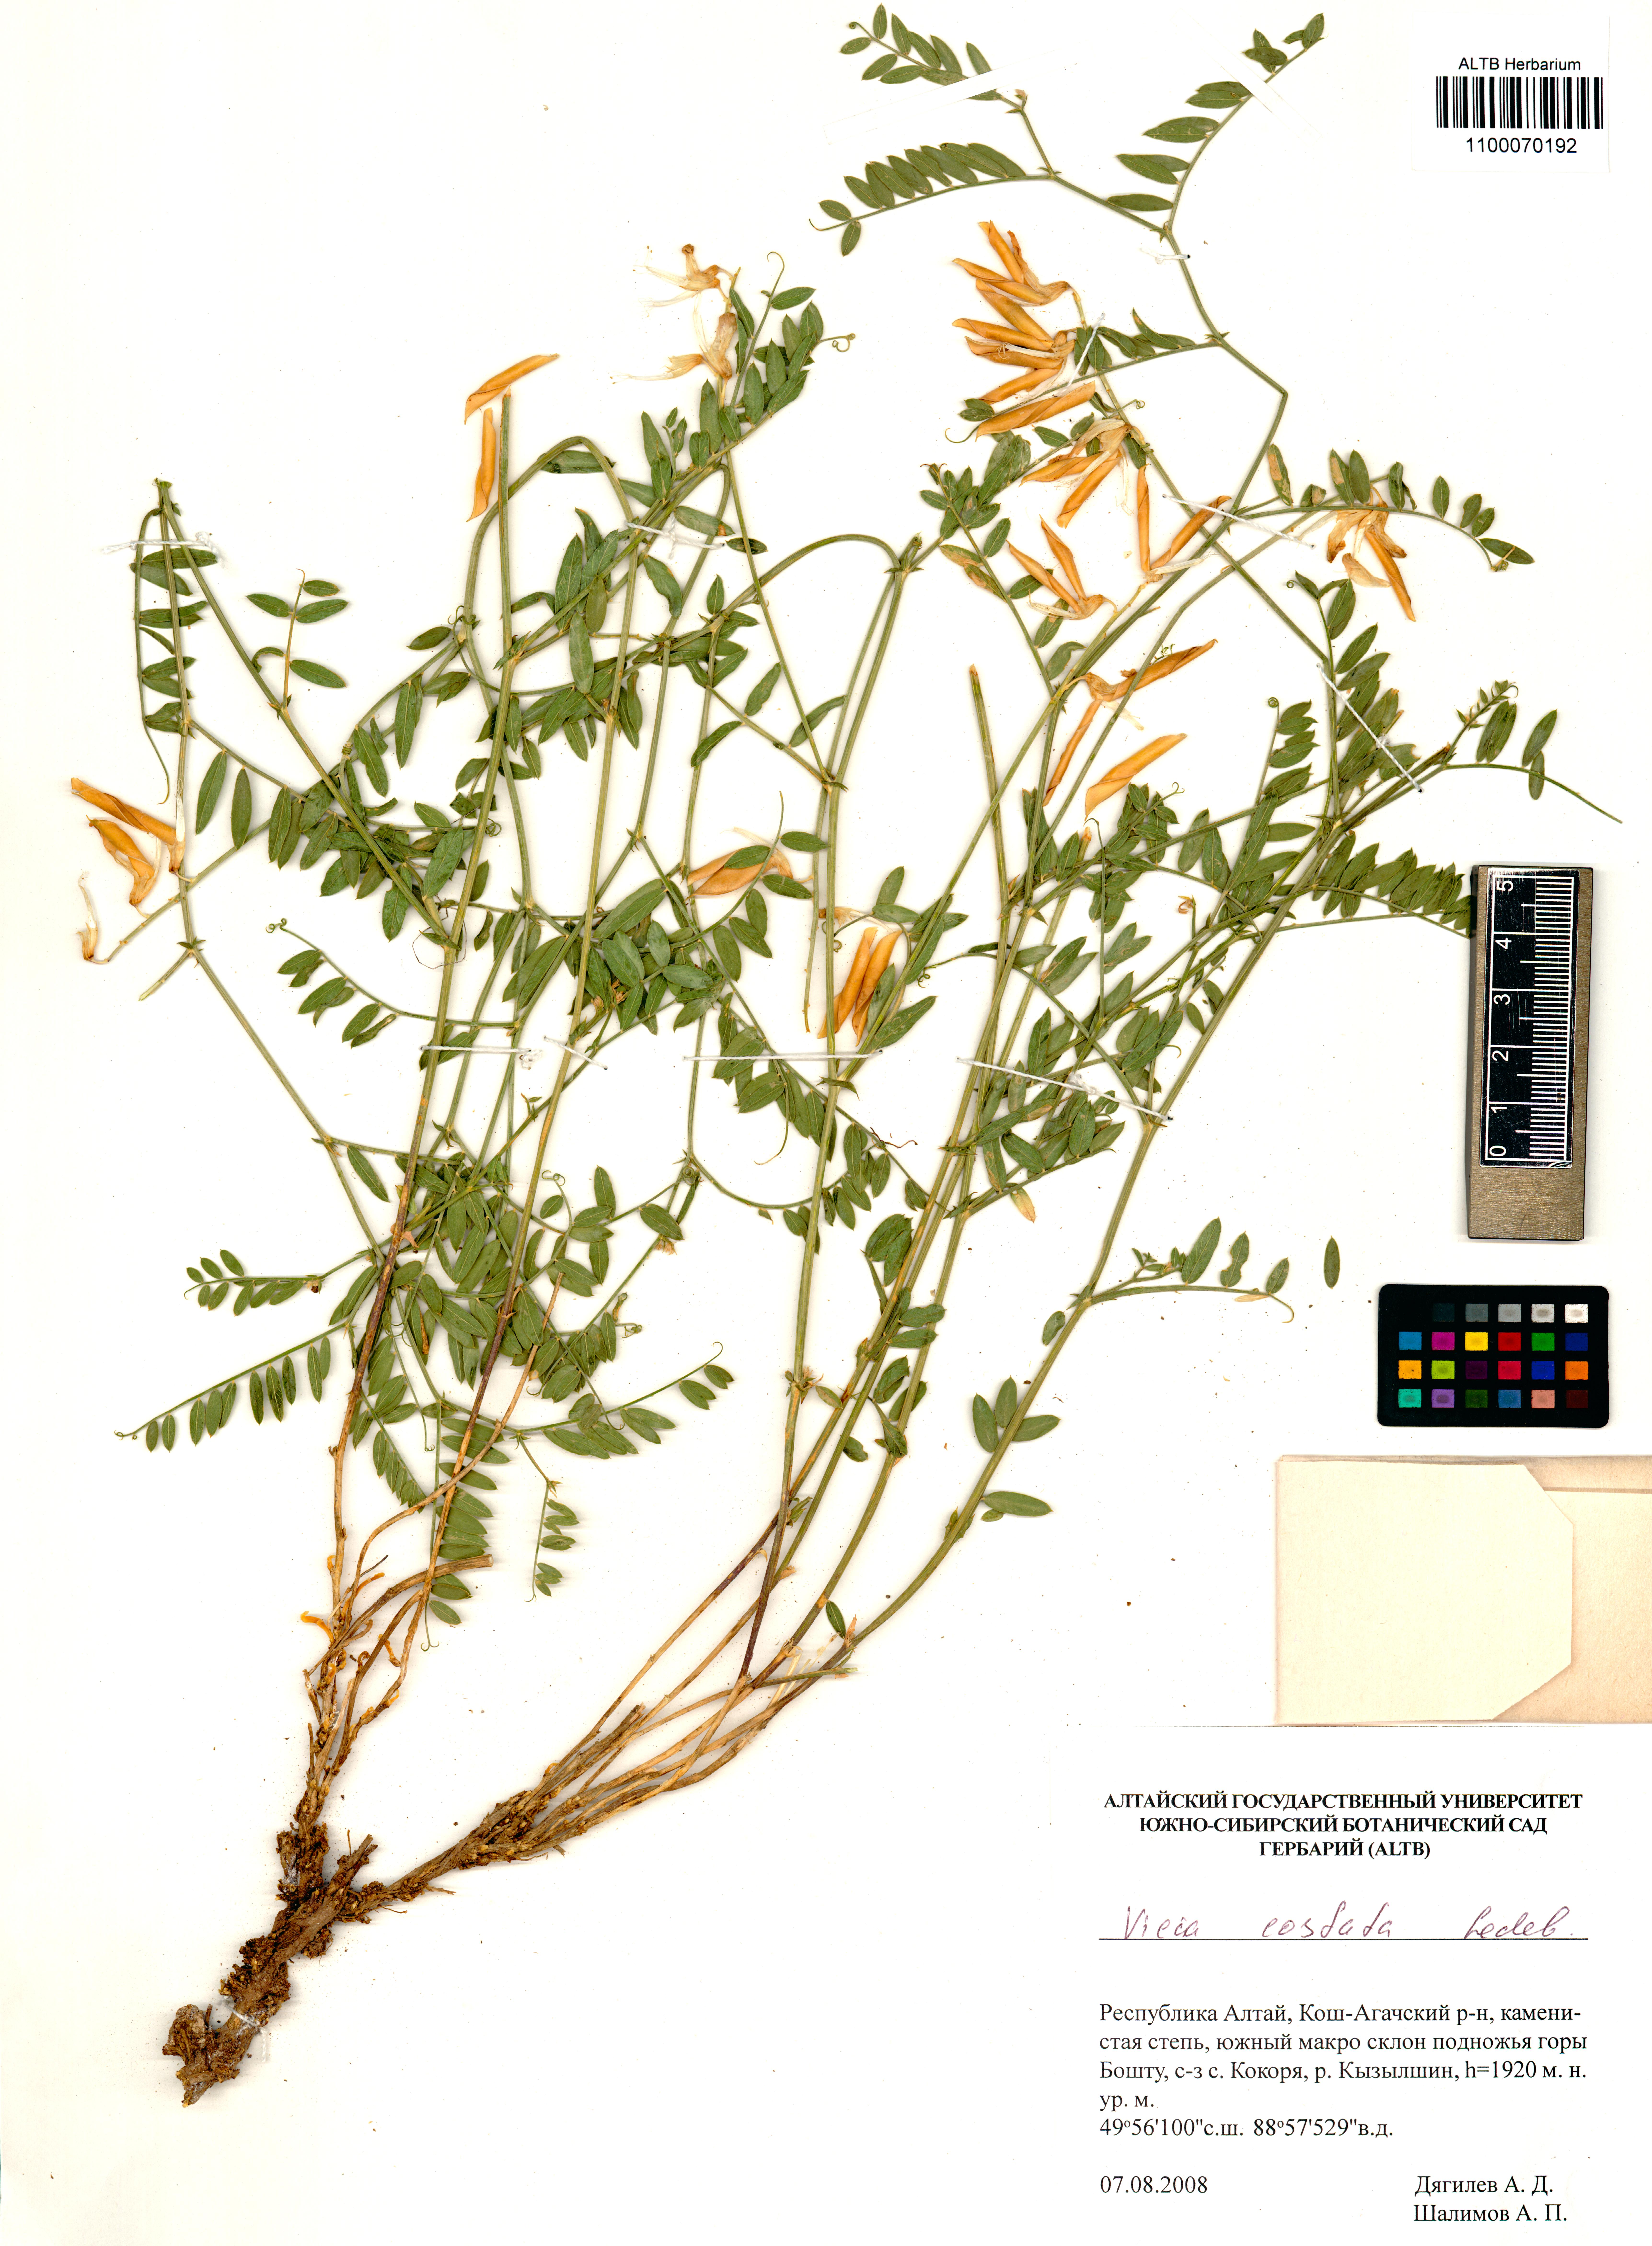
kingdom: Plantae
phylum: Tracheophyta
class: Magnoliopsida
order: Fabales
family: Fabaceae
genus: Vicia
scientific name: Vicia costata
